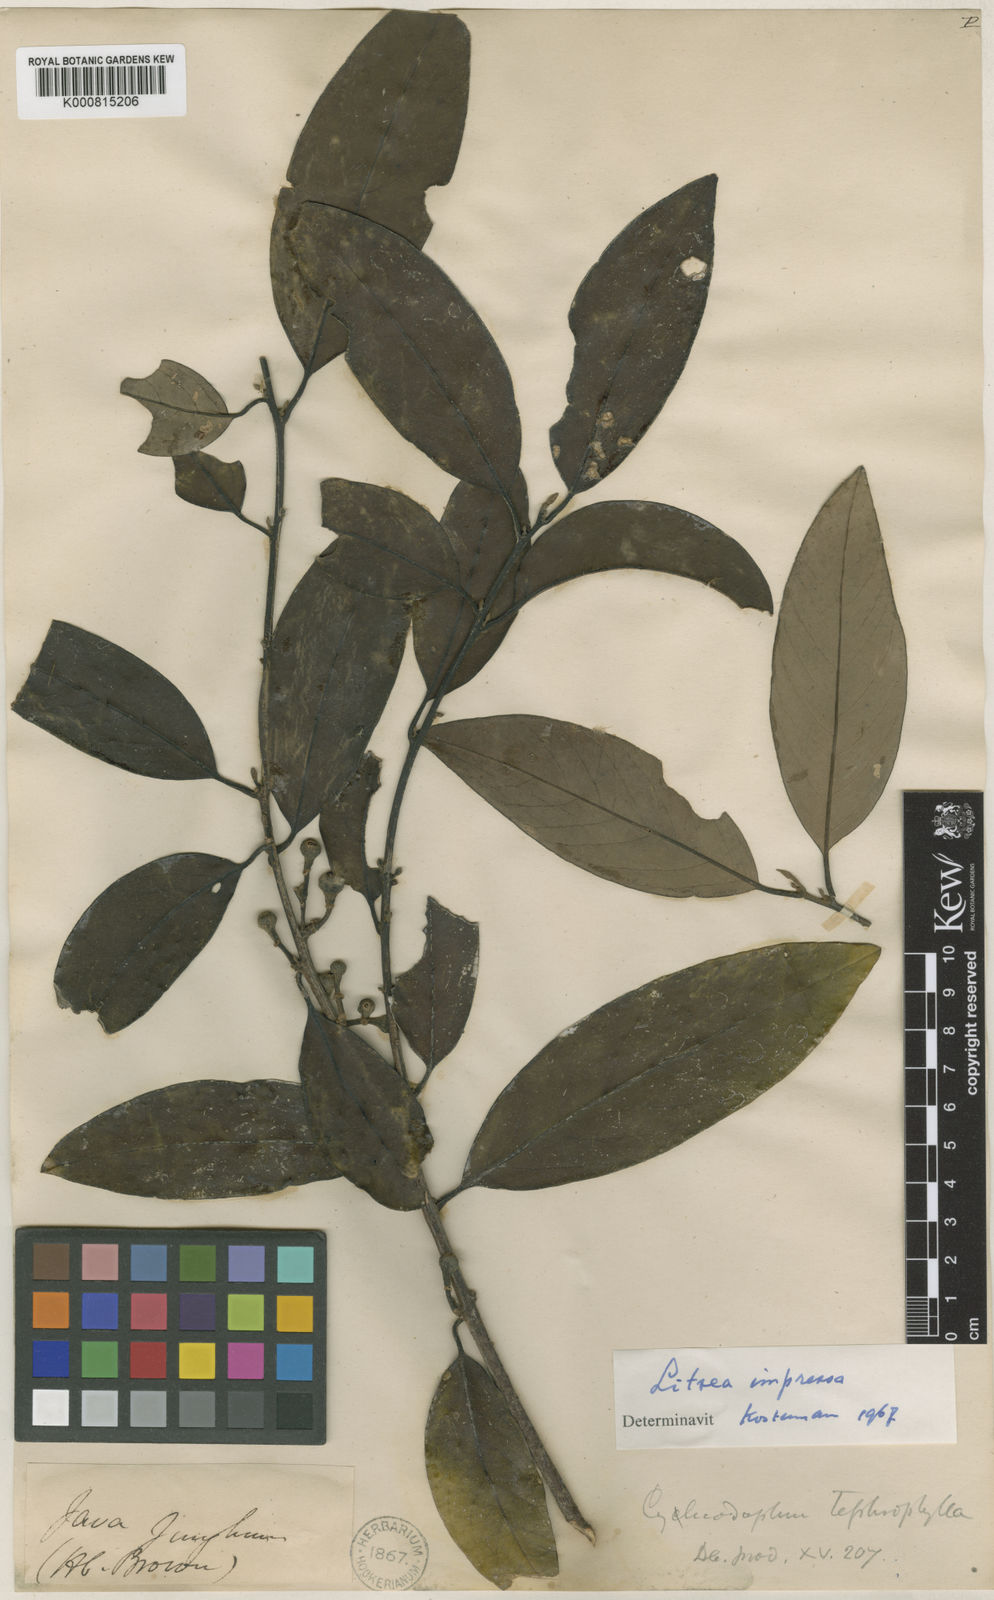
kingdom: Plantae
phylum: Tracheophyta
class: Magnoliopsida
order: Laurales
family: Lauraceae
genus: Litsea
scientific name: Litsea impressa
